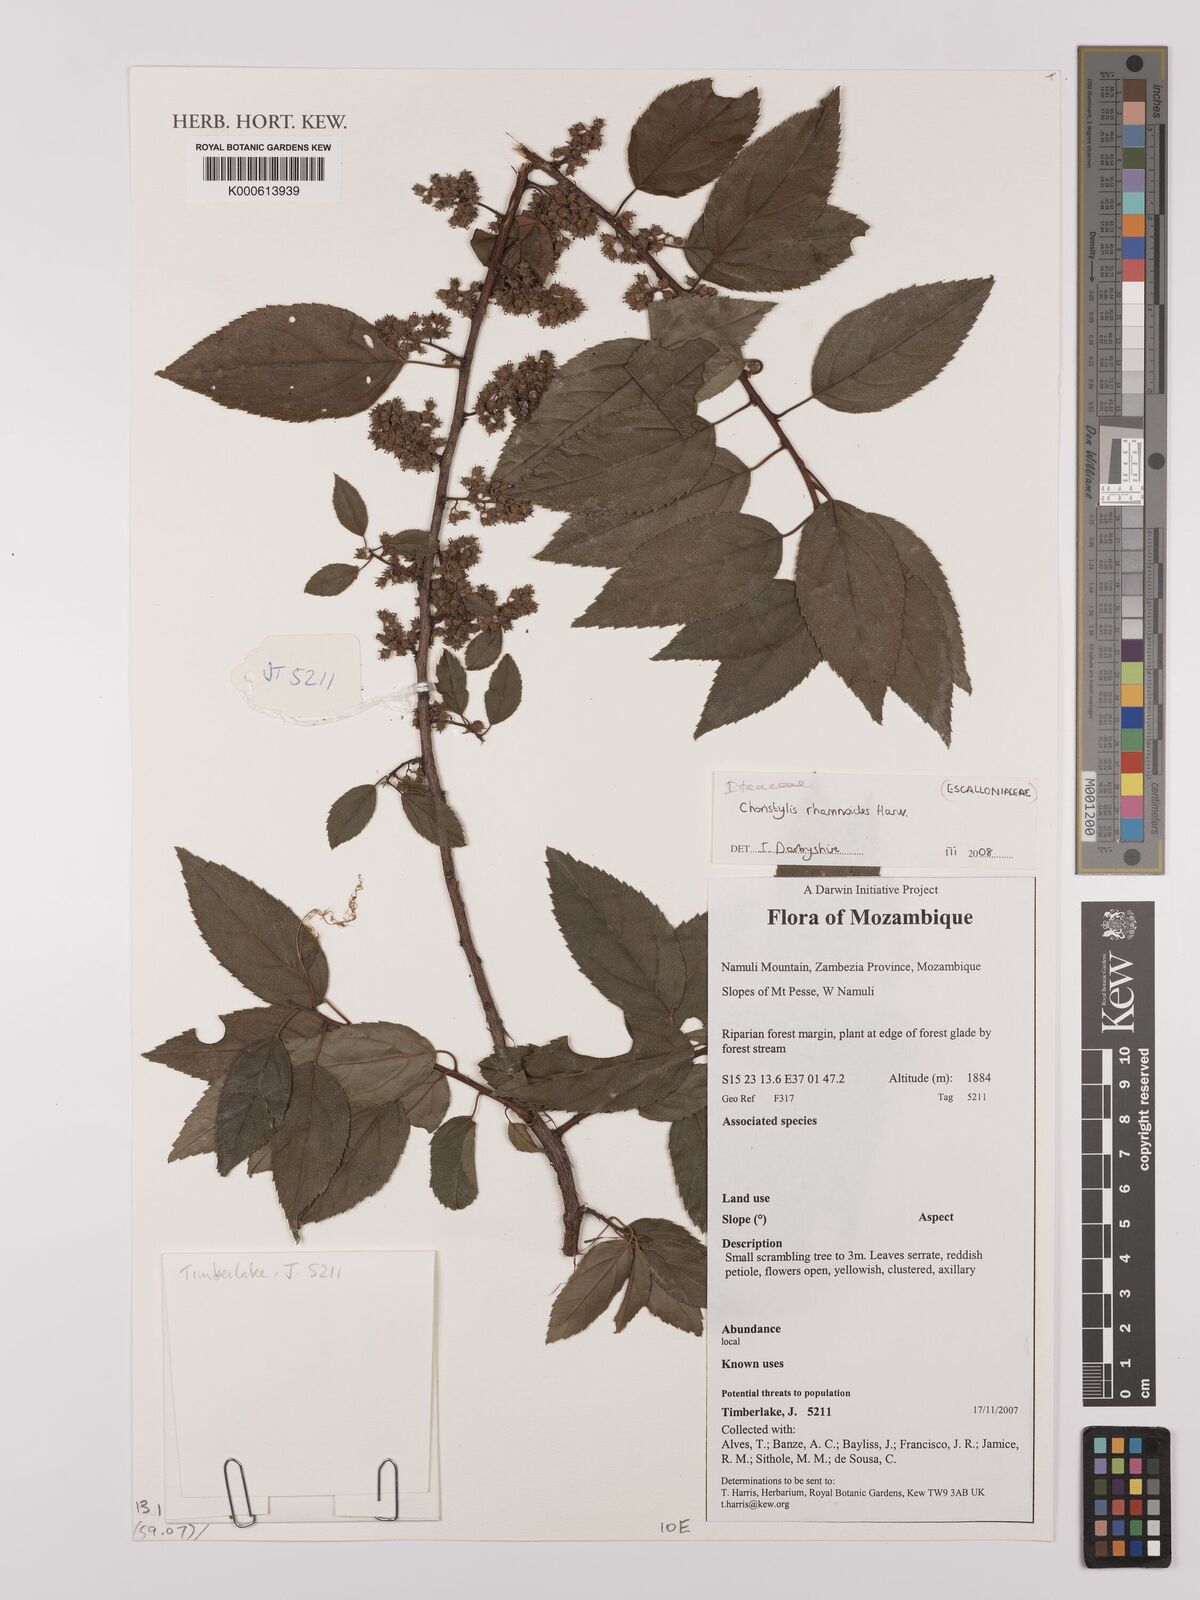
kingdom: Plantae
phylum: Tracheophyta
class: Magnoliopsida
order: Saxifragales
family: Iteaceae
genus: Itea
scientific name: Itea rhamnoides
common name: False dogwood
